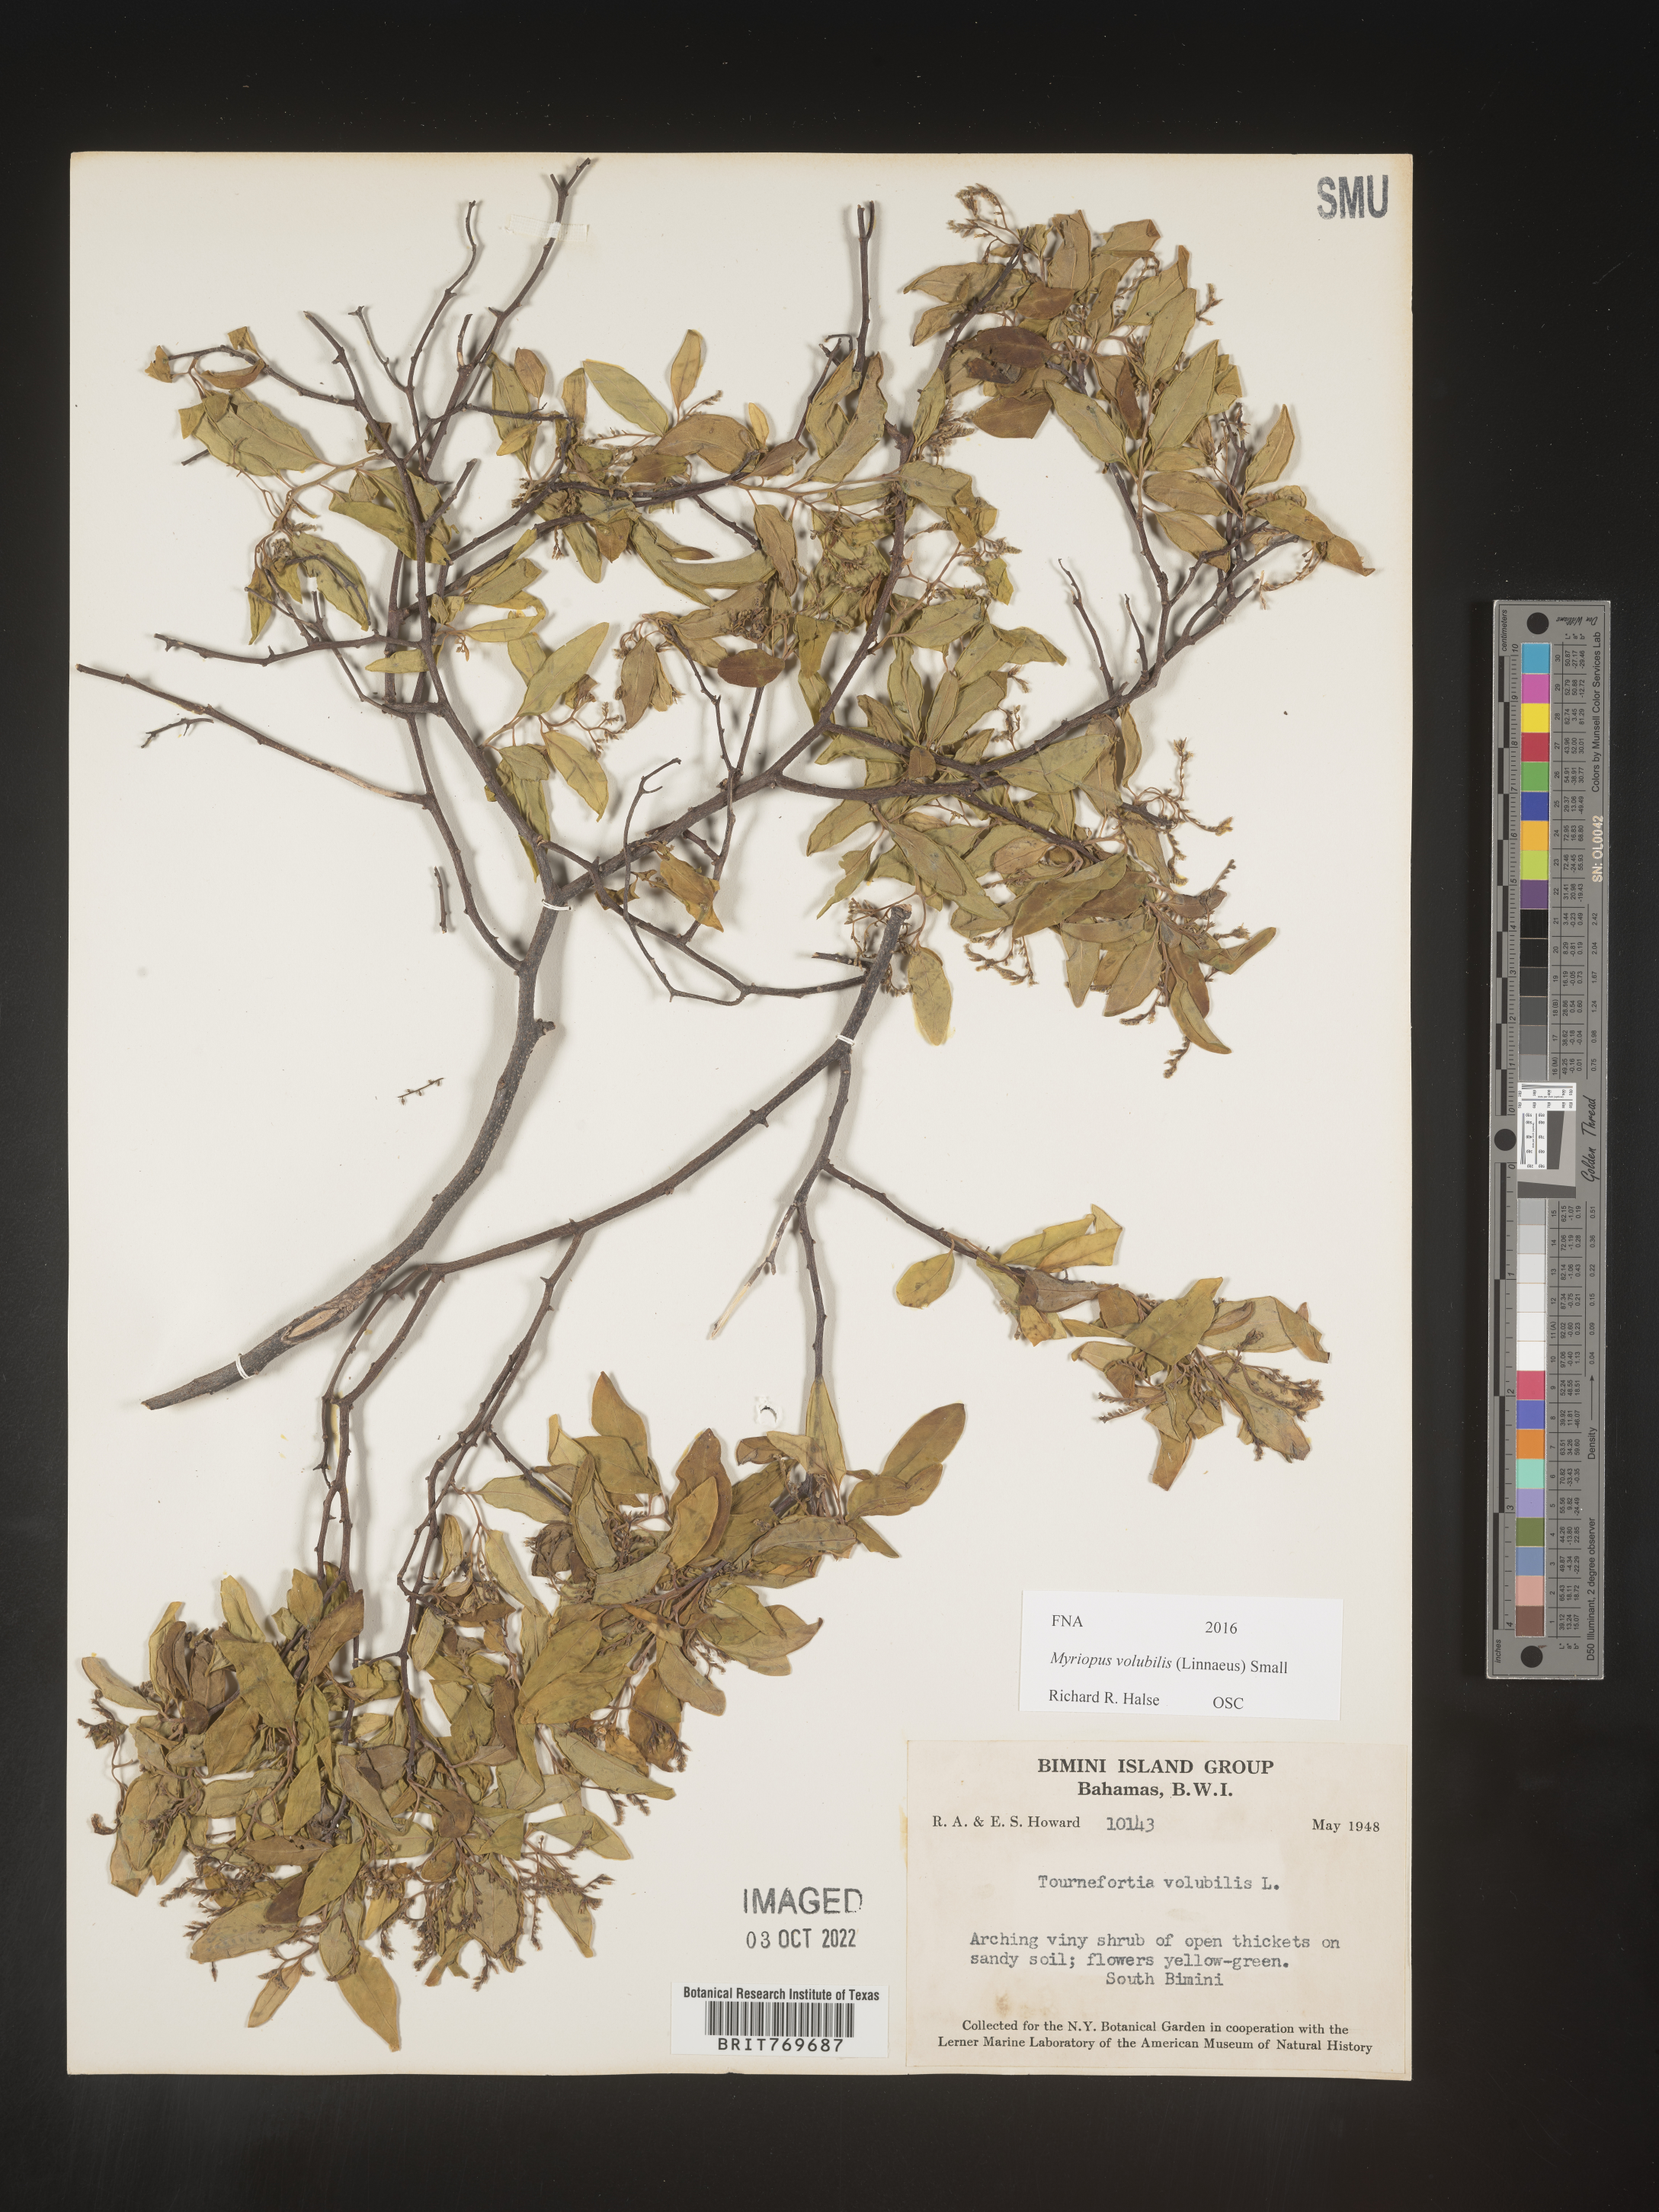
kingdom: Plantae
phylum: Tracheophyta
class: Magnoliopsida
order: Boraginales
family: Heliotropiaceae
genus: Myriopus
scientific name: Myriopus
